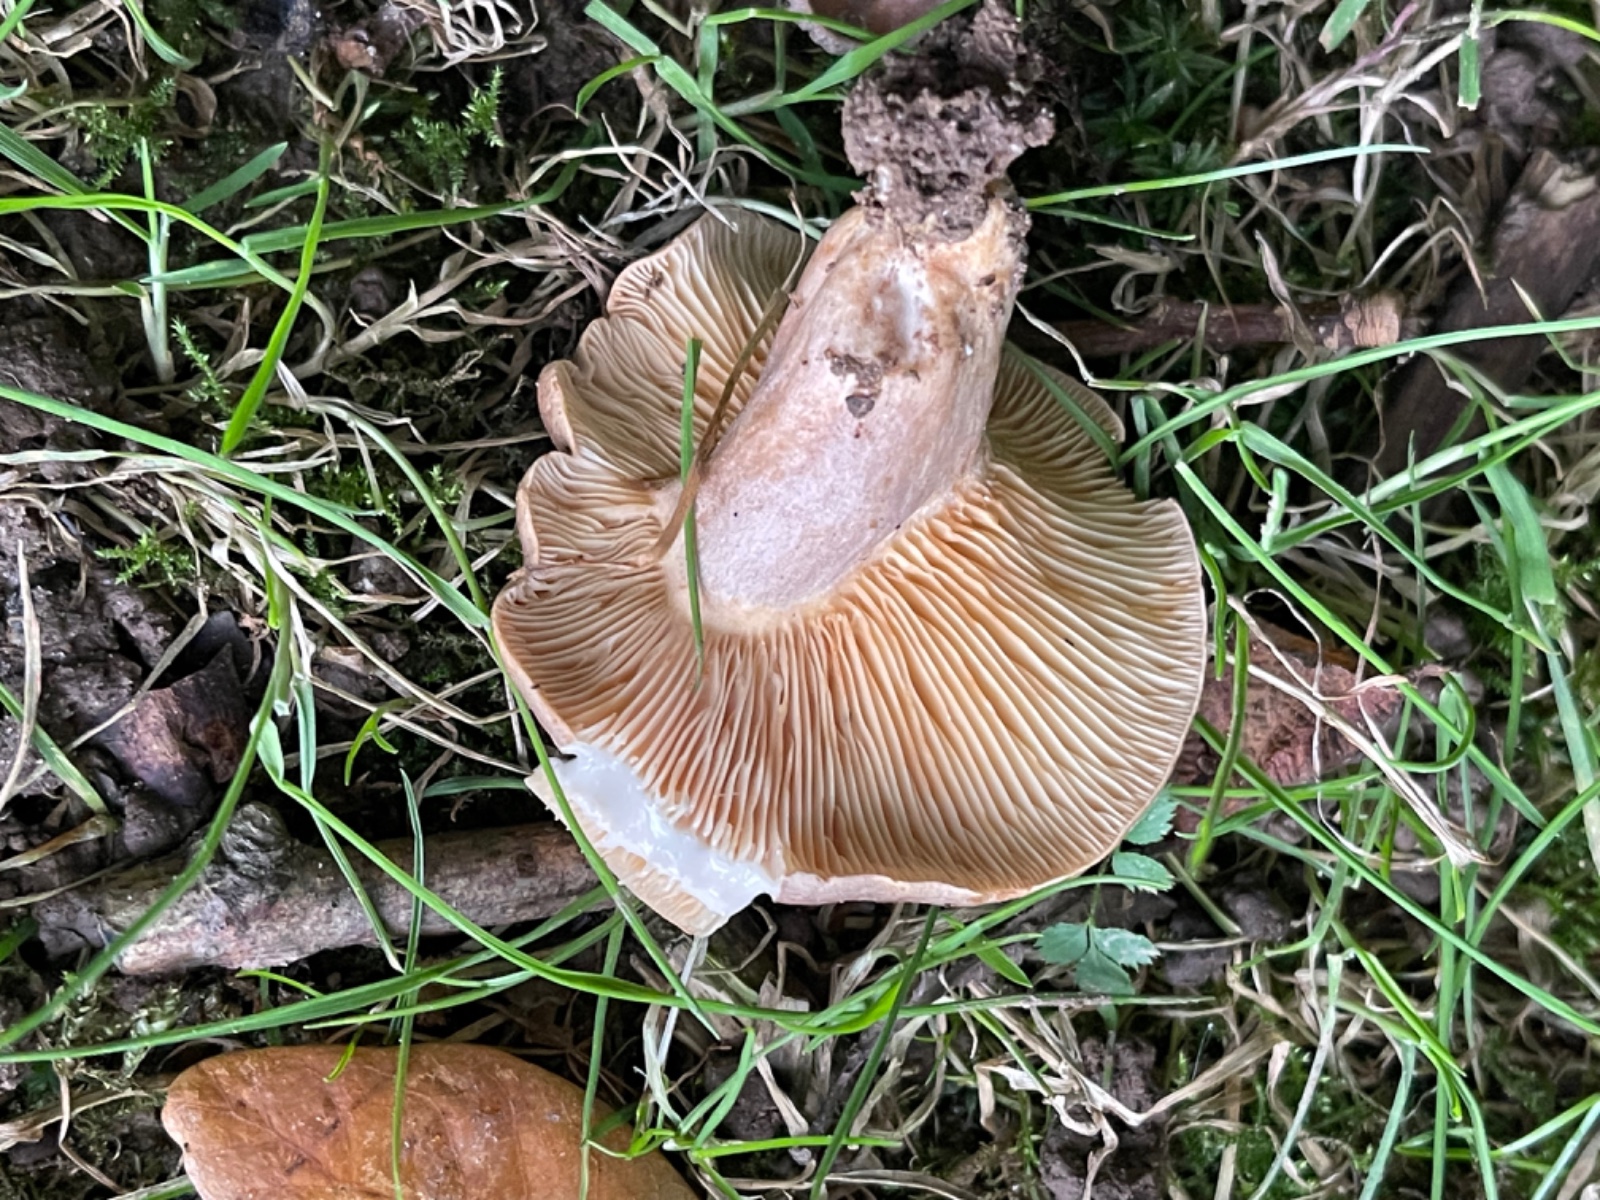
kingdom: Fungi
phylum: Basidiomycota
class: Agaricomycetes
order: Russulales
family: Russulaceae
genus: Lactarius
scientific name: Lactarius pyrogalus
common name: hassel-mælkehat
